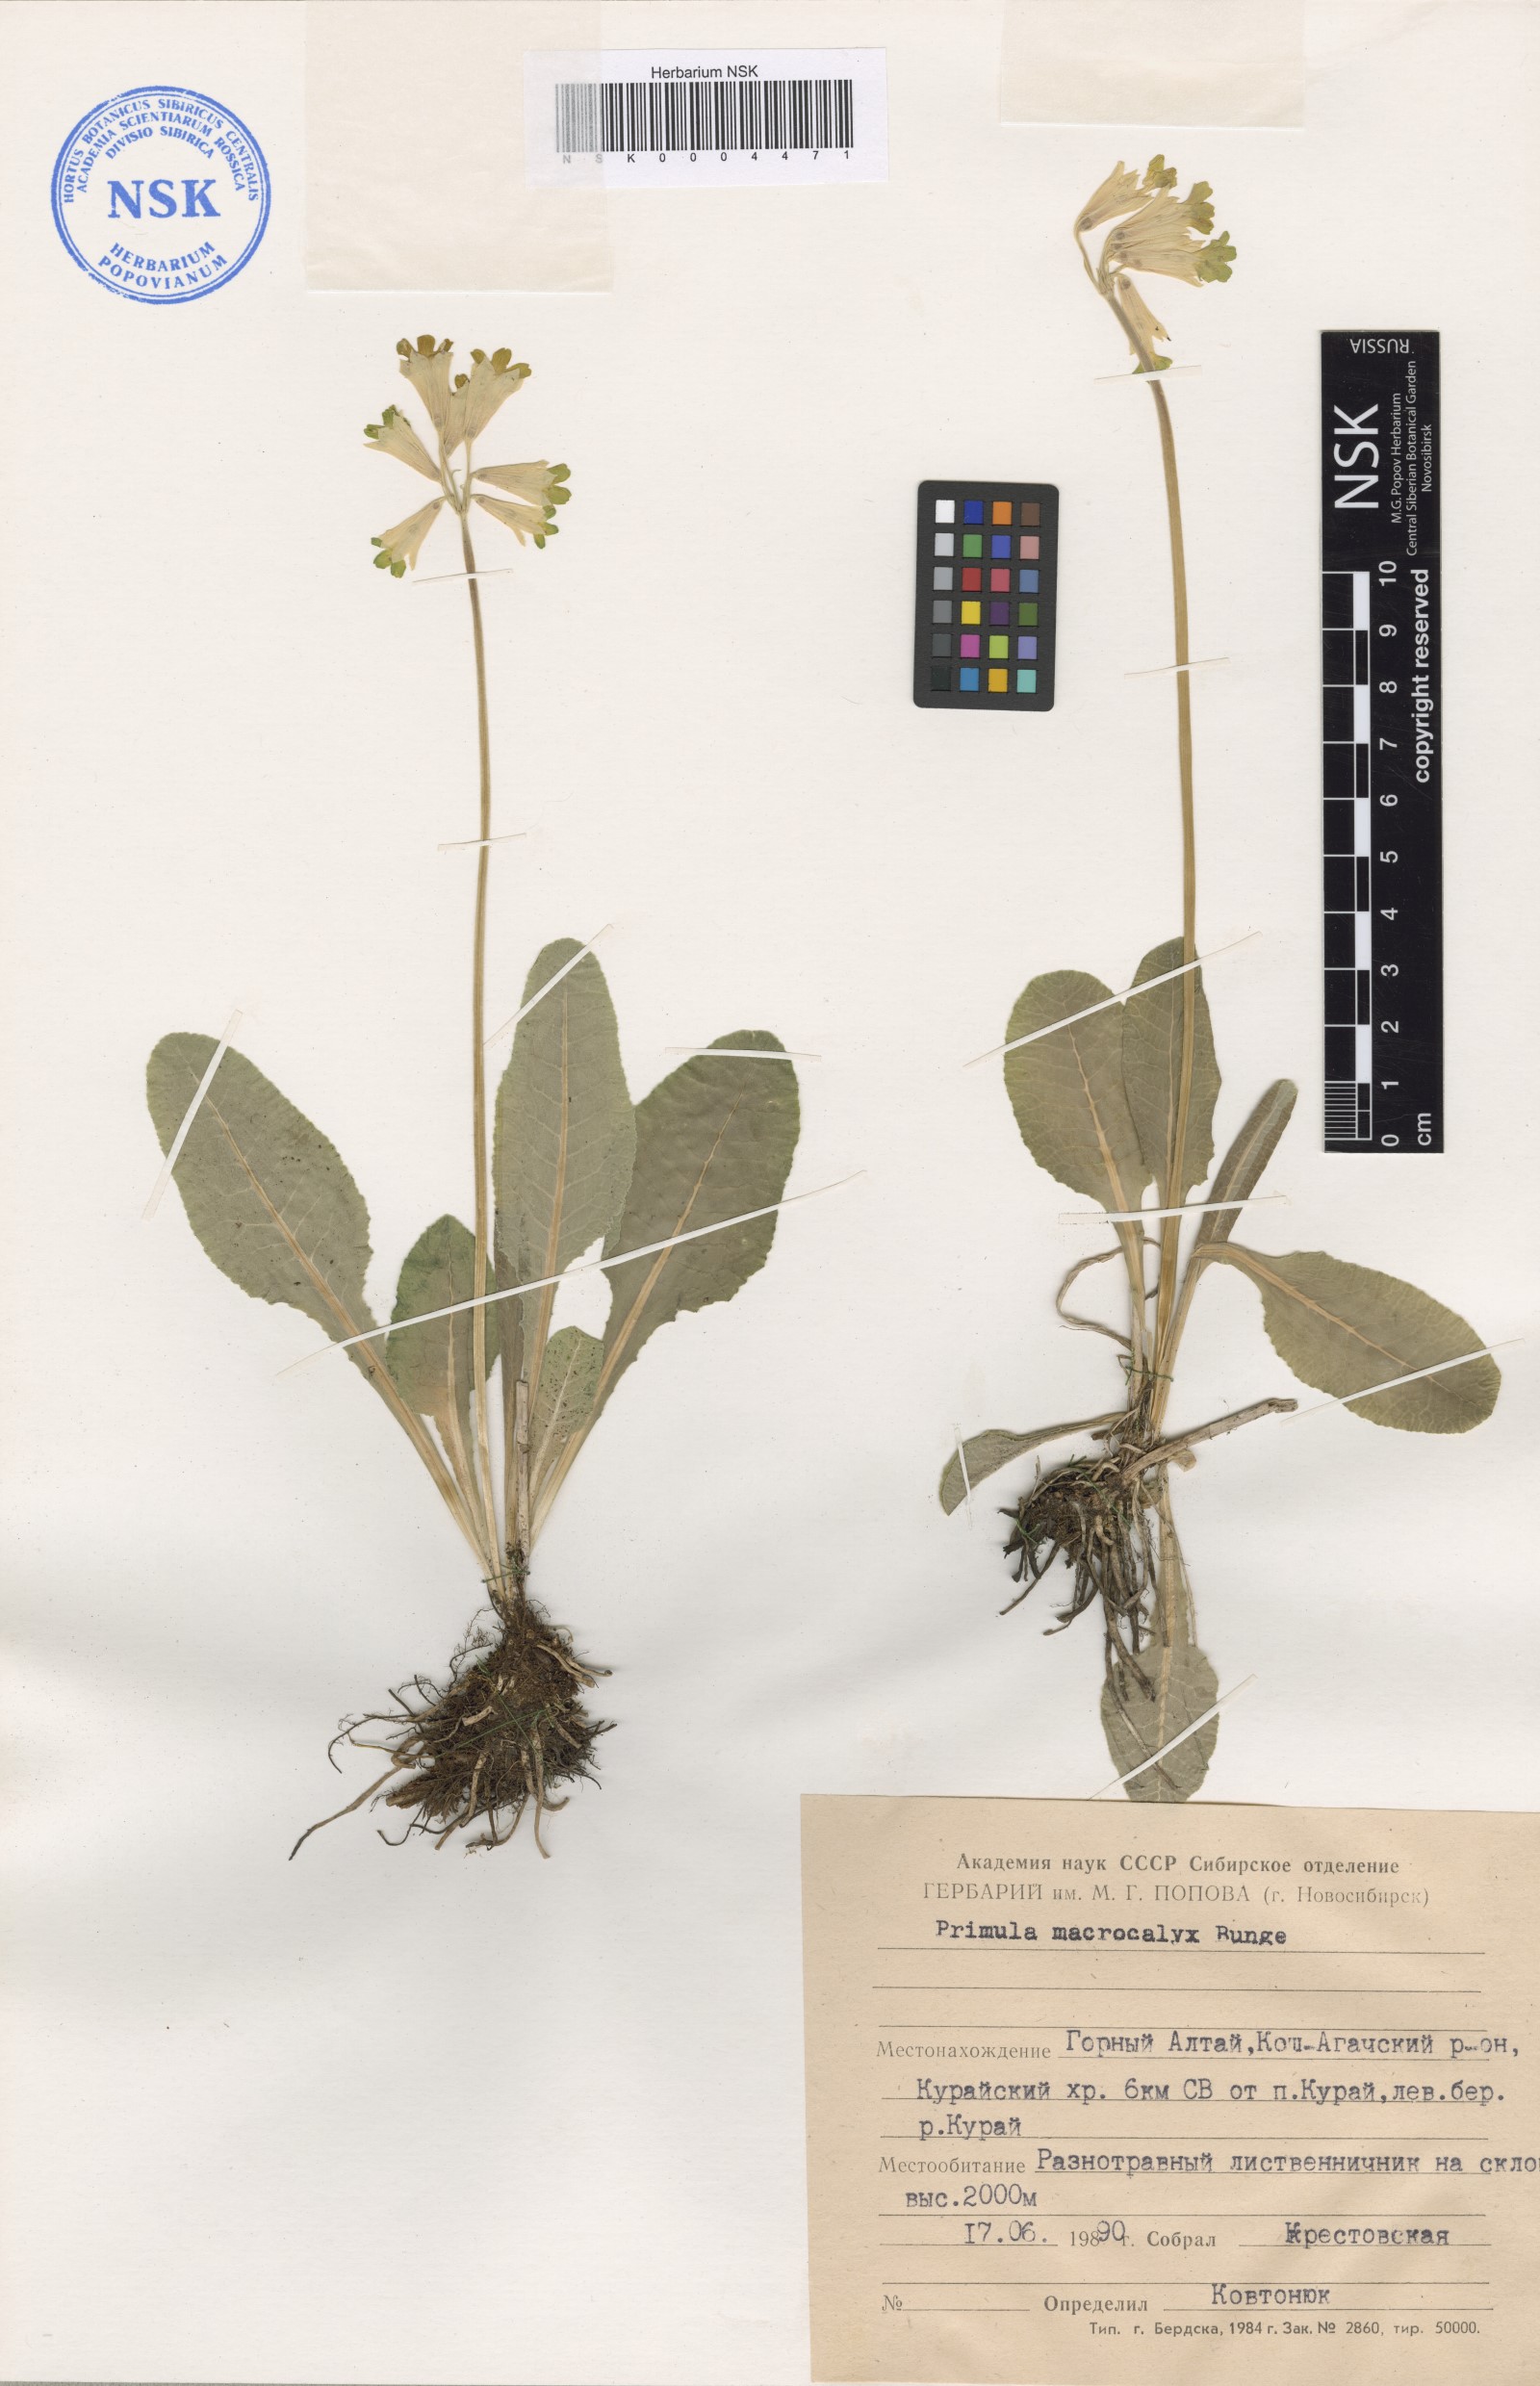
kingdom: Plantae
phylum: Tracheophyta
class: Magnoliopsida
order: Ericales
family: Primulaceae
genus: Primula
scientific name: Primula veris
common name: Cowslip
